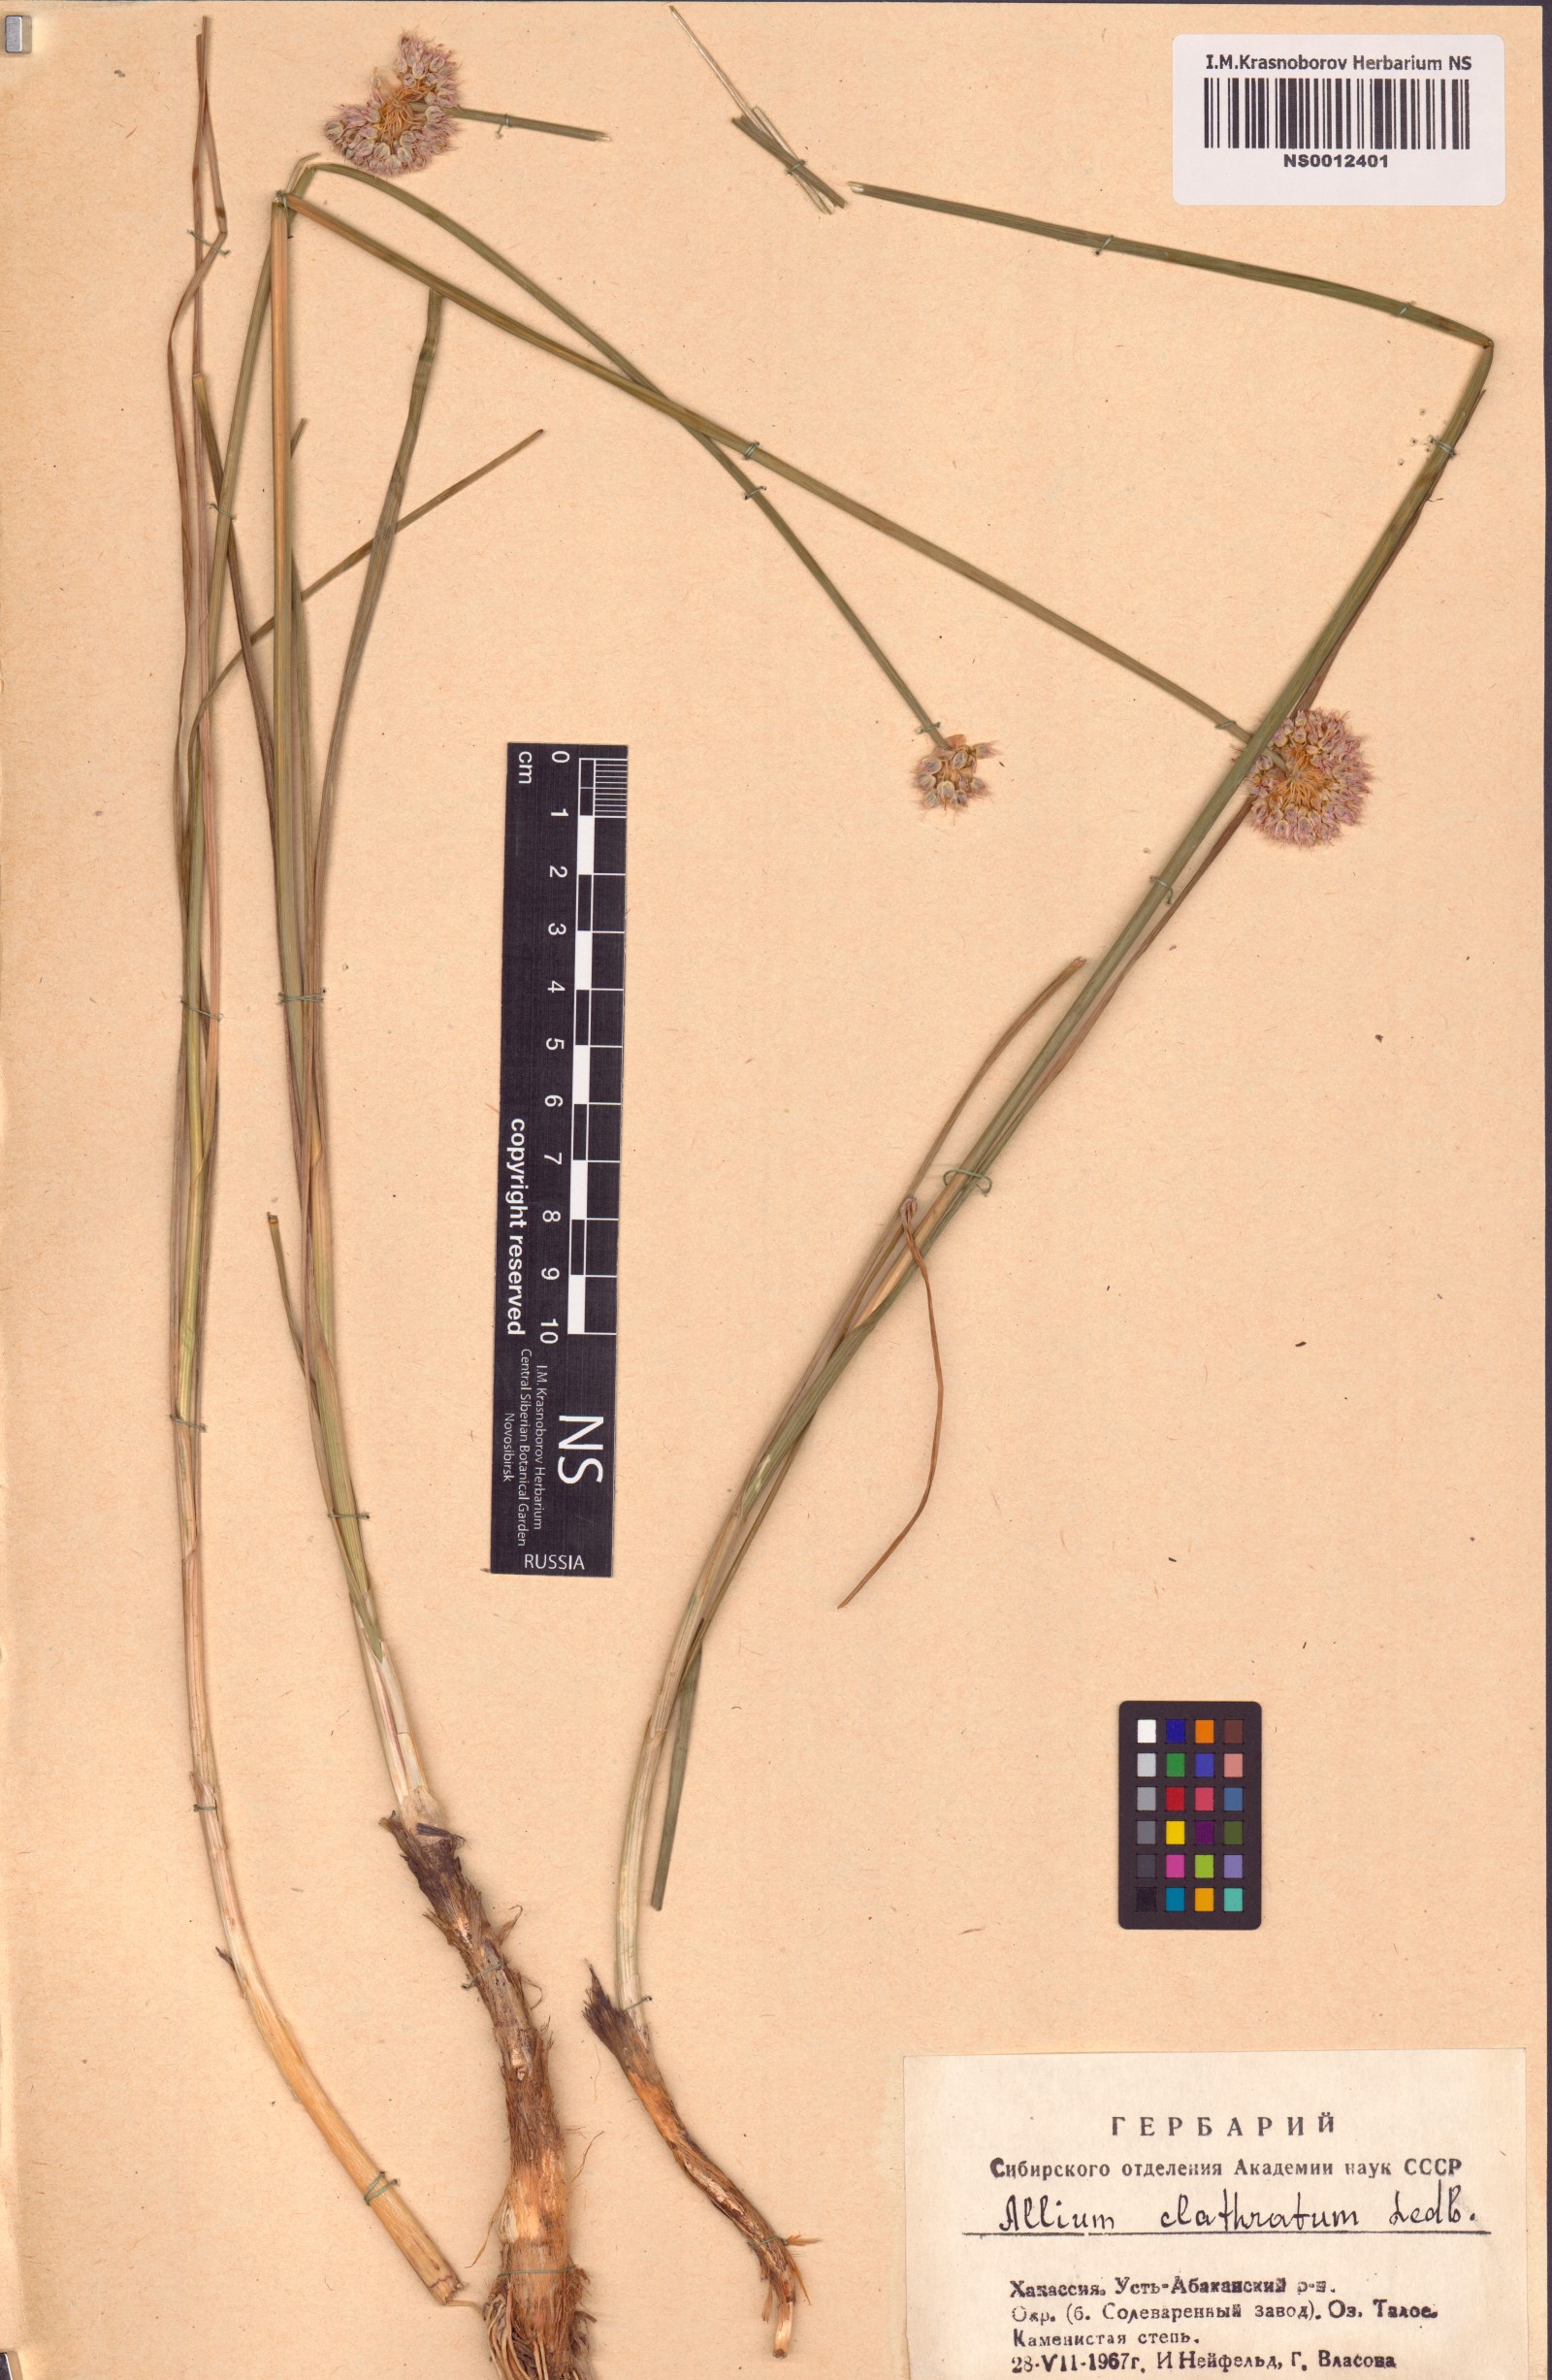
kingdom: Plantae
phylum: Tracheophyta
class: Liliopsida
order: Asparagales
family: Amaryllidaceae
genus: Allium
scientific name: Allium clathratum
